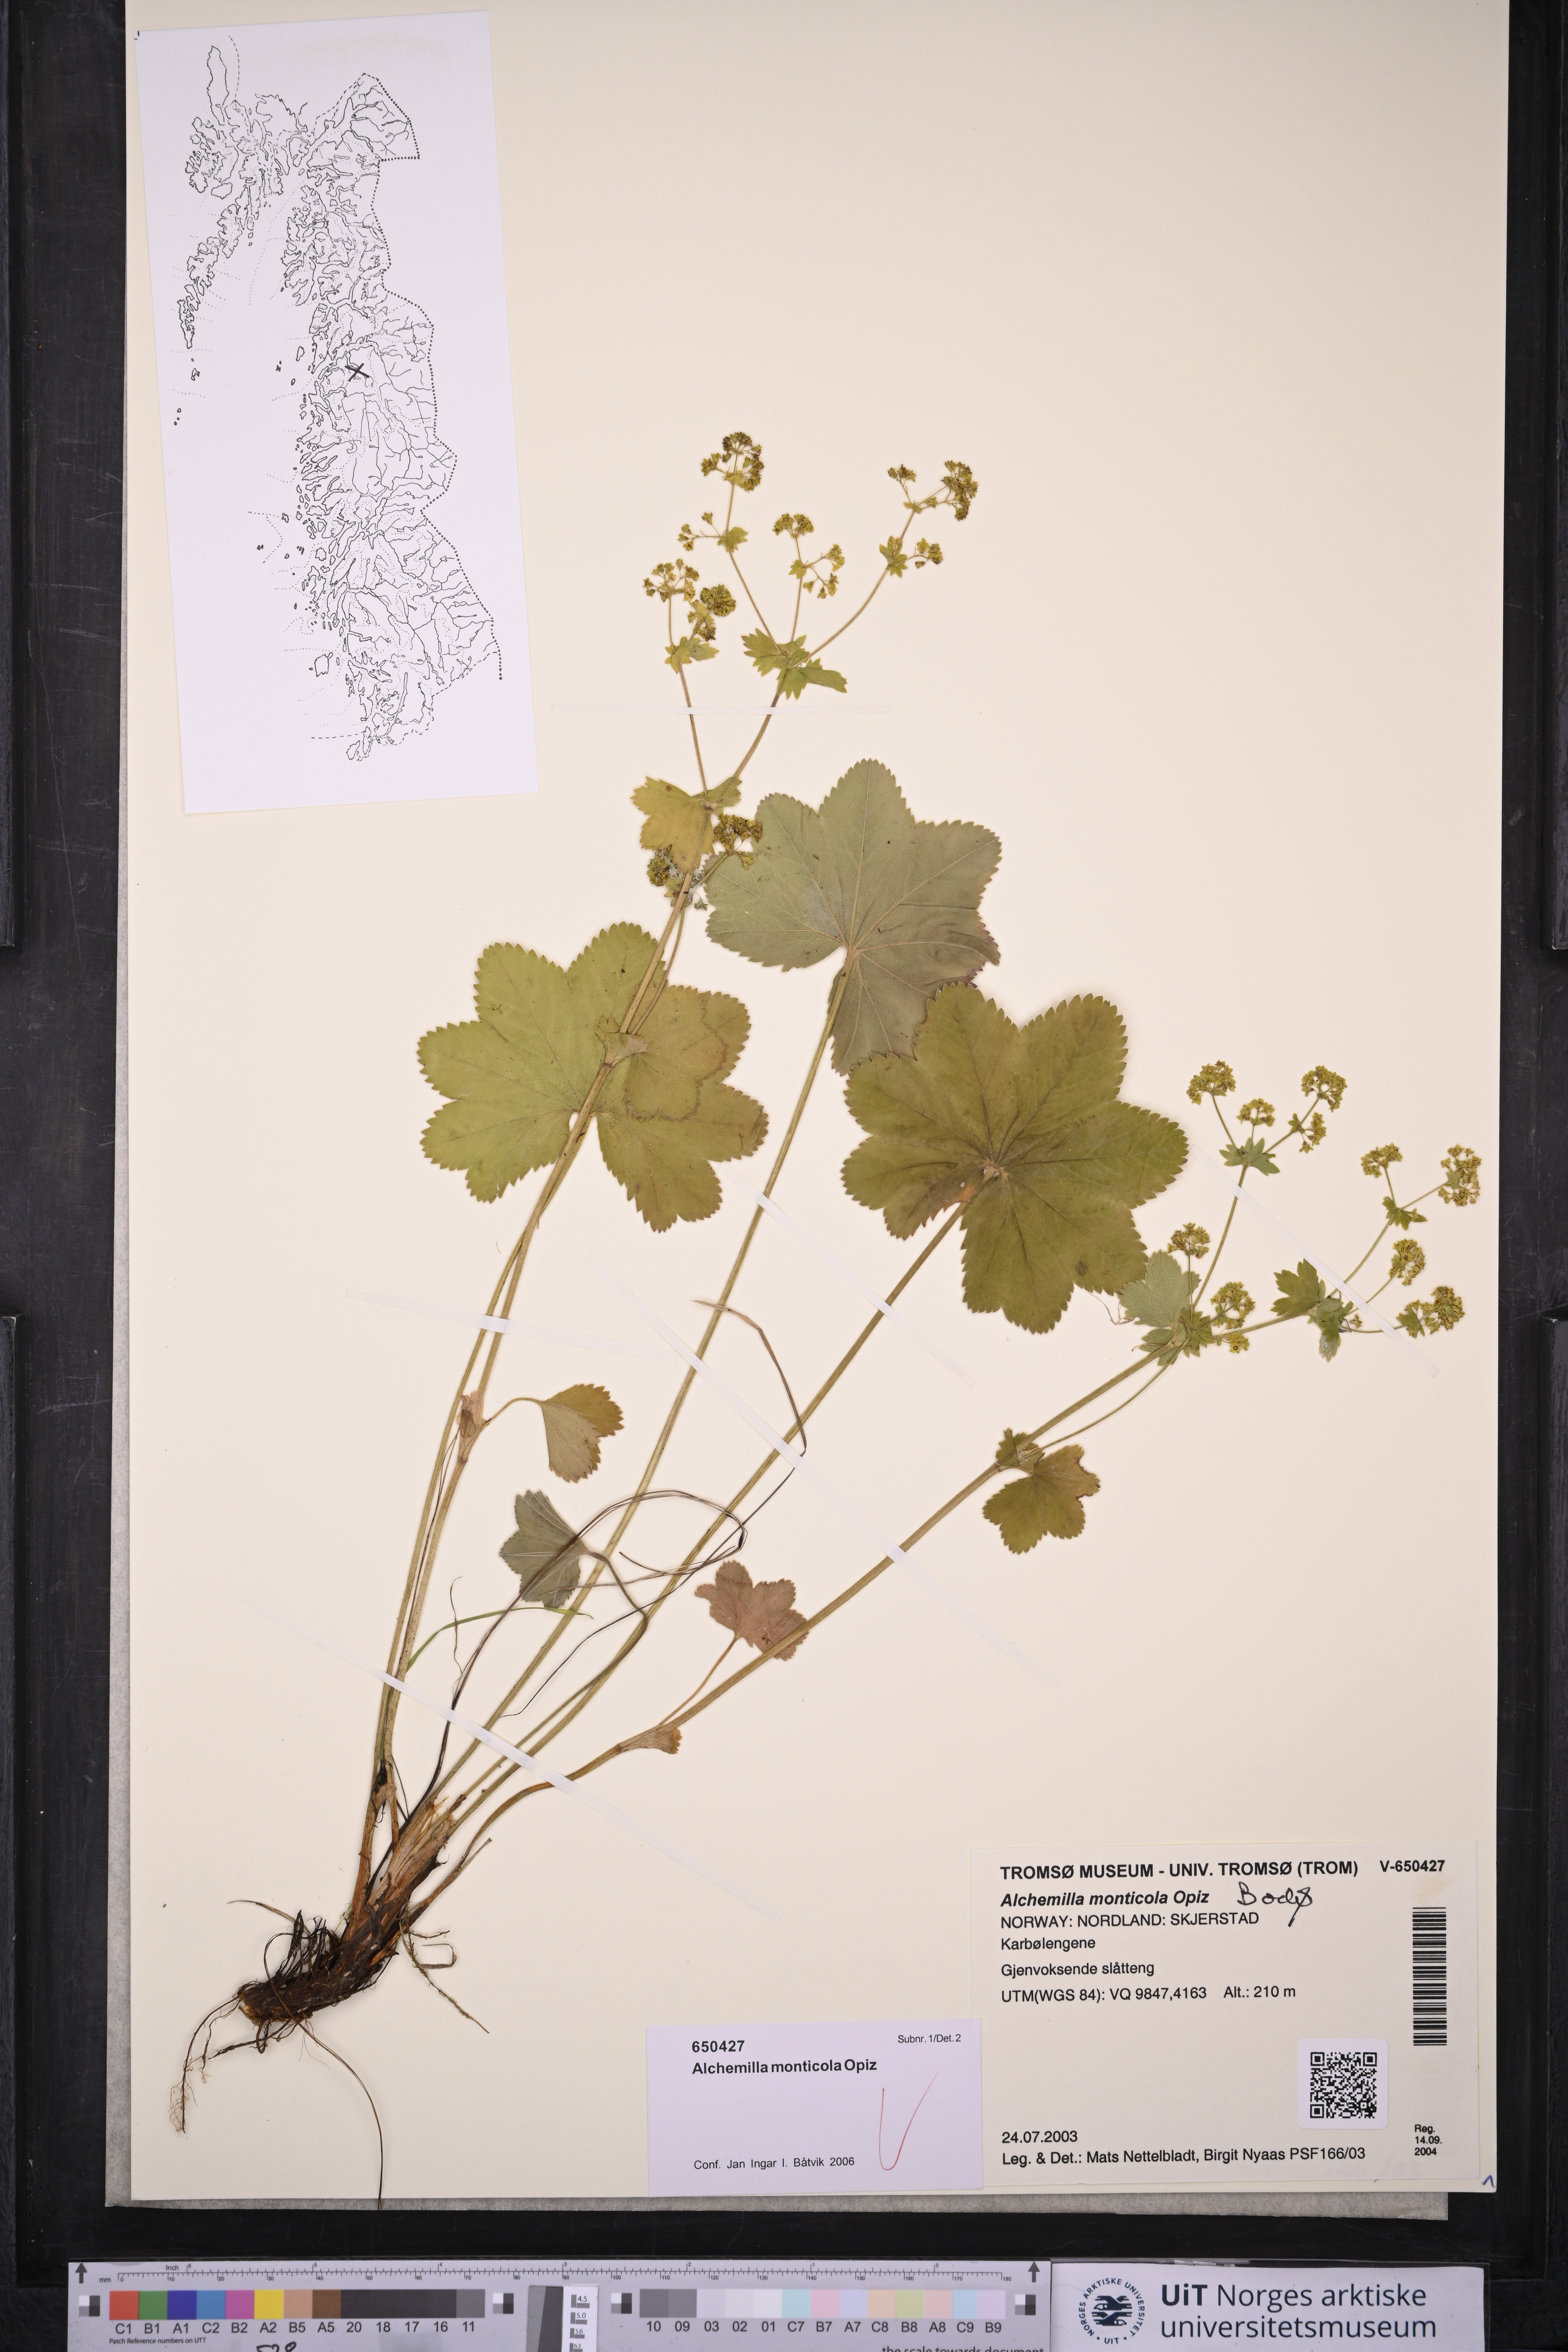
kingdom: Plantae
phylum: Tracheophyta
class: Magnoliopsida
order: Rosales
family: Rosaceae
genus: Alchemilla
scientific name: Alchemilla monticola
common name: Hairy lady's mantle
